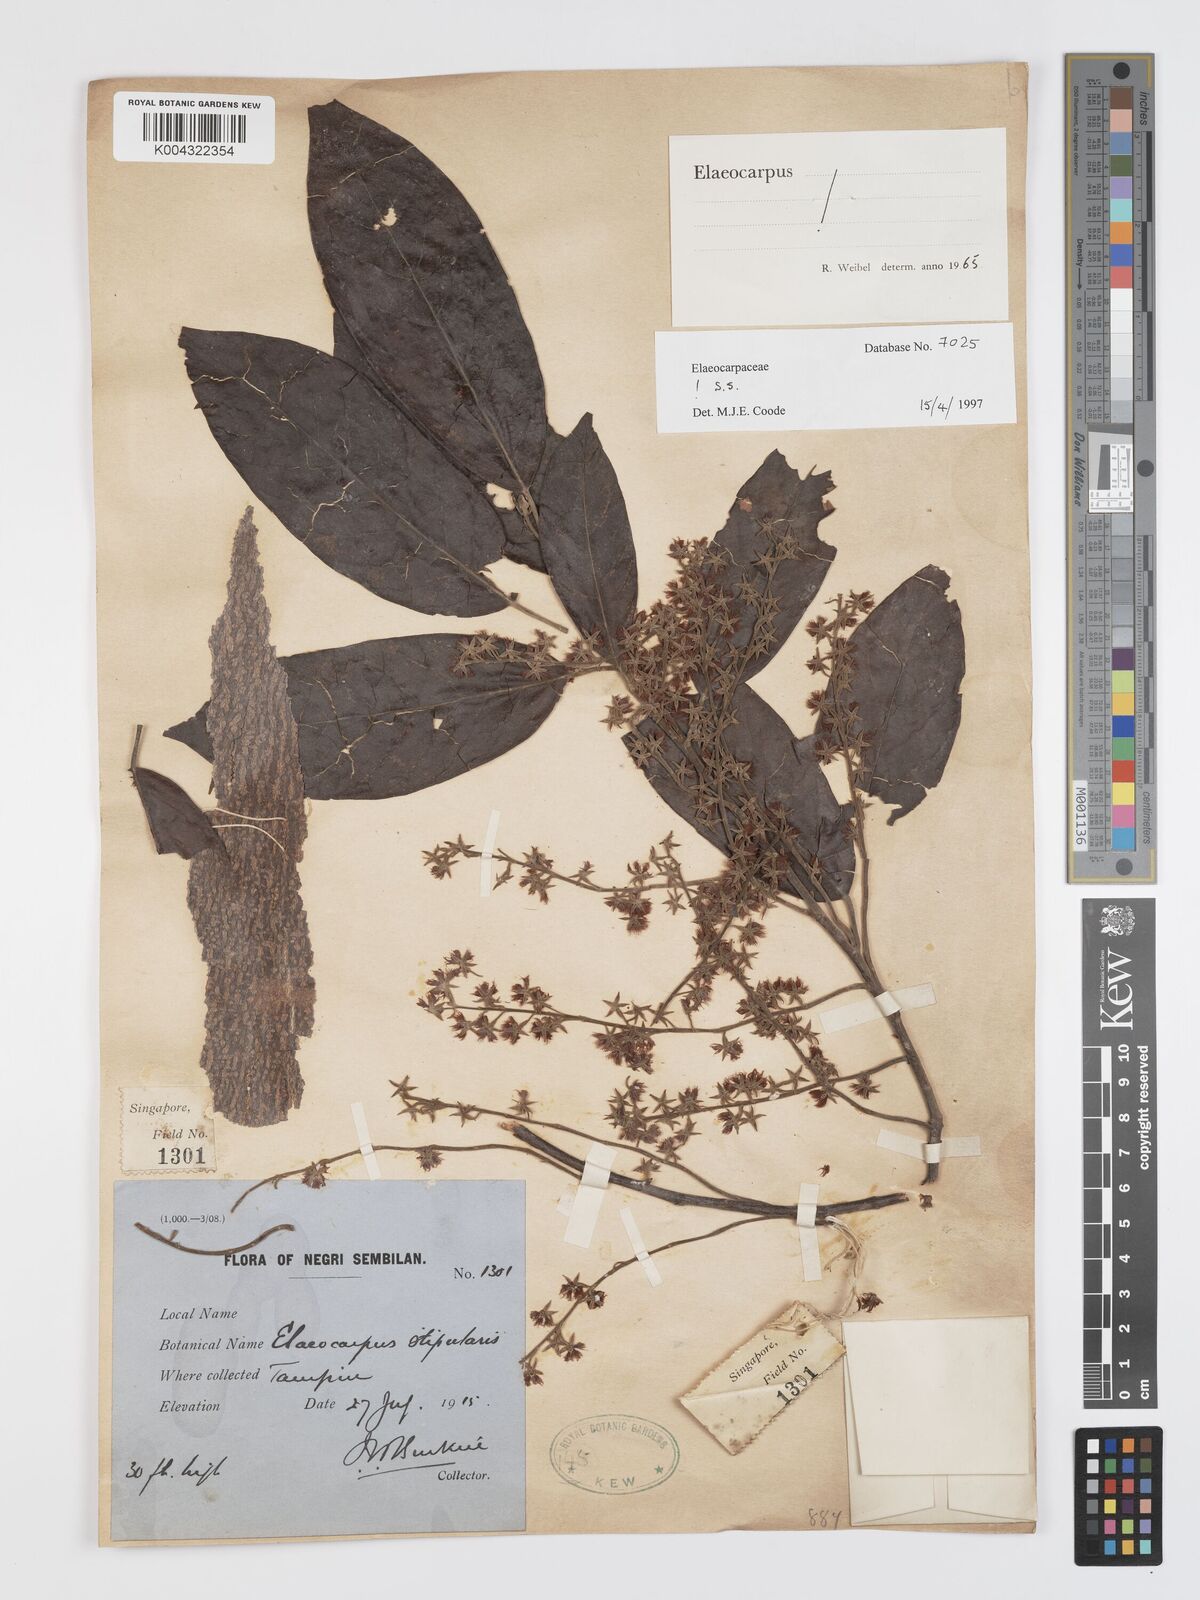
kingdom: Plantae
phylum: Tracheophyta
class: Magnoliopsida
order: Oxalidales
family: Elaeocarpaceae
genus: Elaeocarpus
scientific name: Elaeocarpus stipularis
